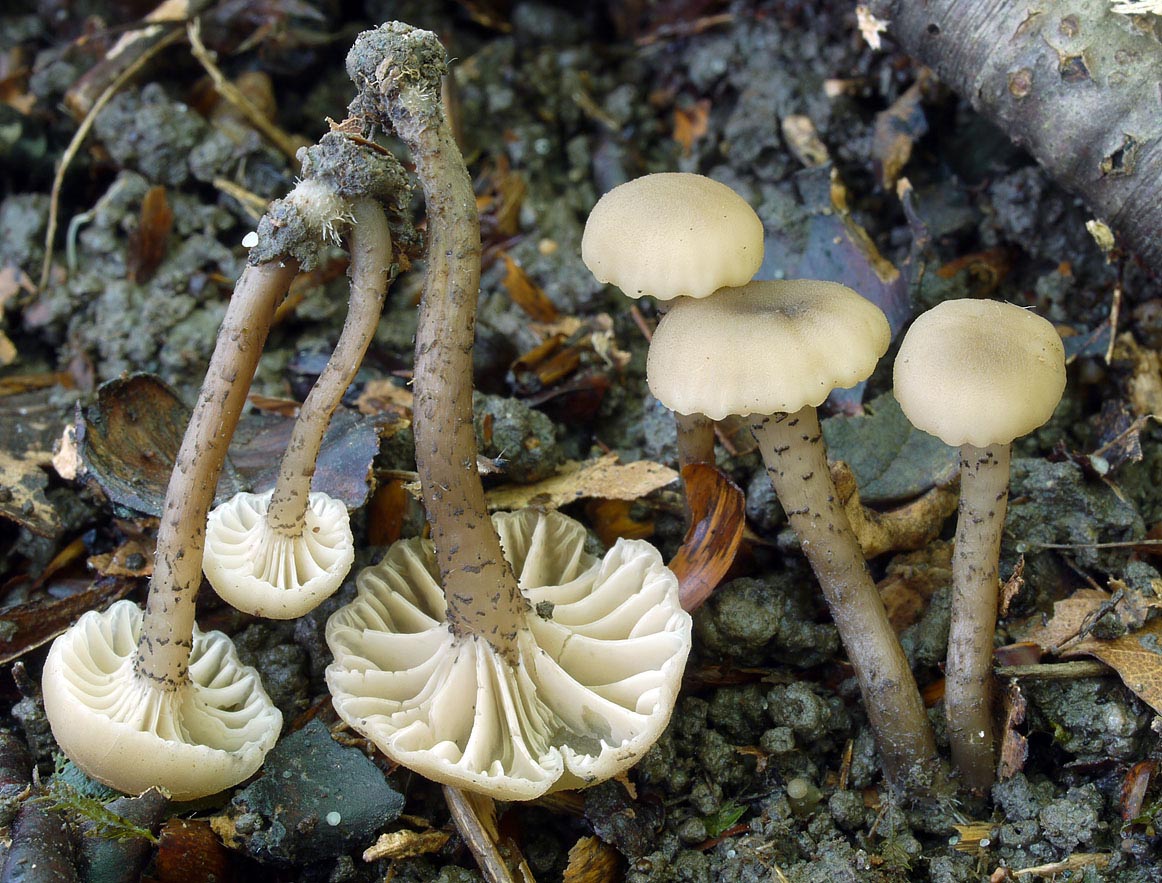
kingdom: Fungi
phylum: Basidiomycota
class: Agaricomycetes
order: Agaricales
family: Clavariaceae
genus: Hodophilus
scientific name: Hodophilus atropunctus
